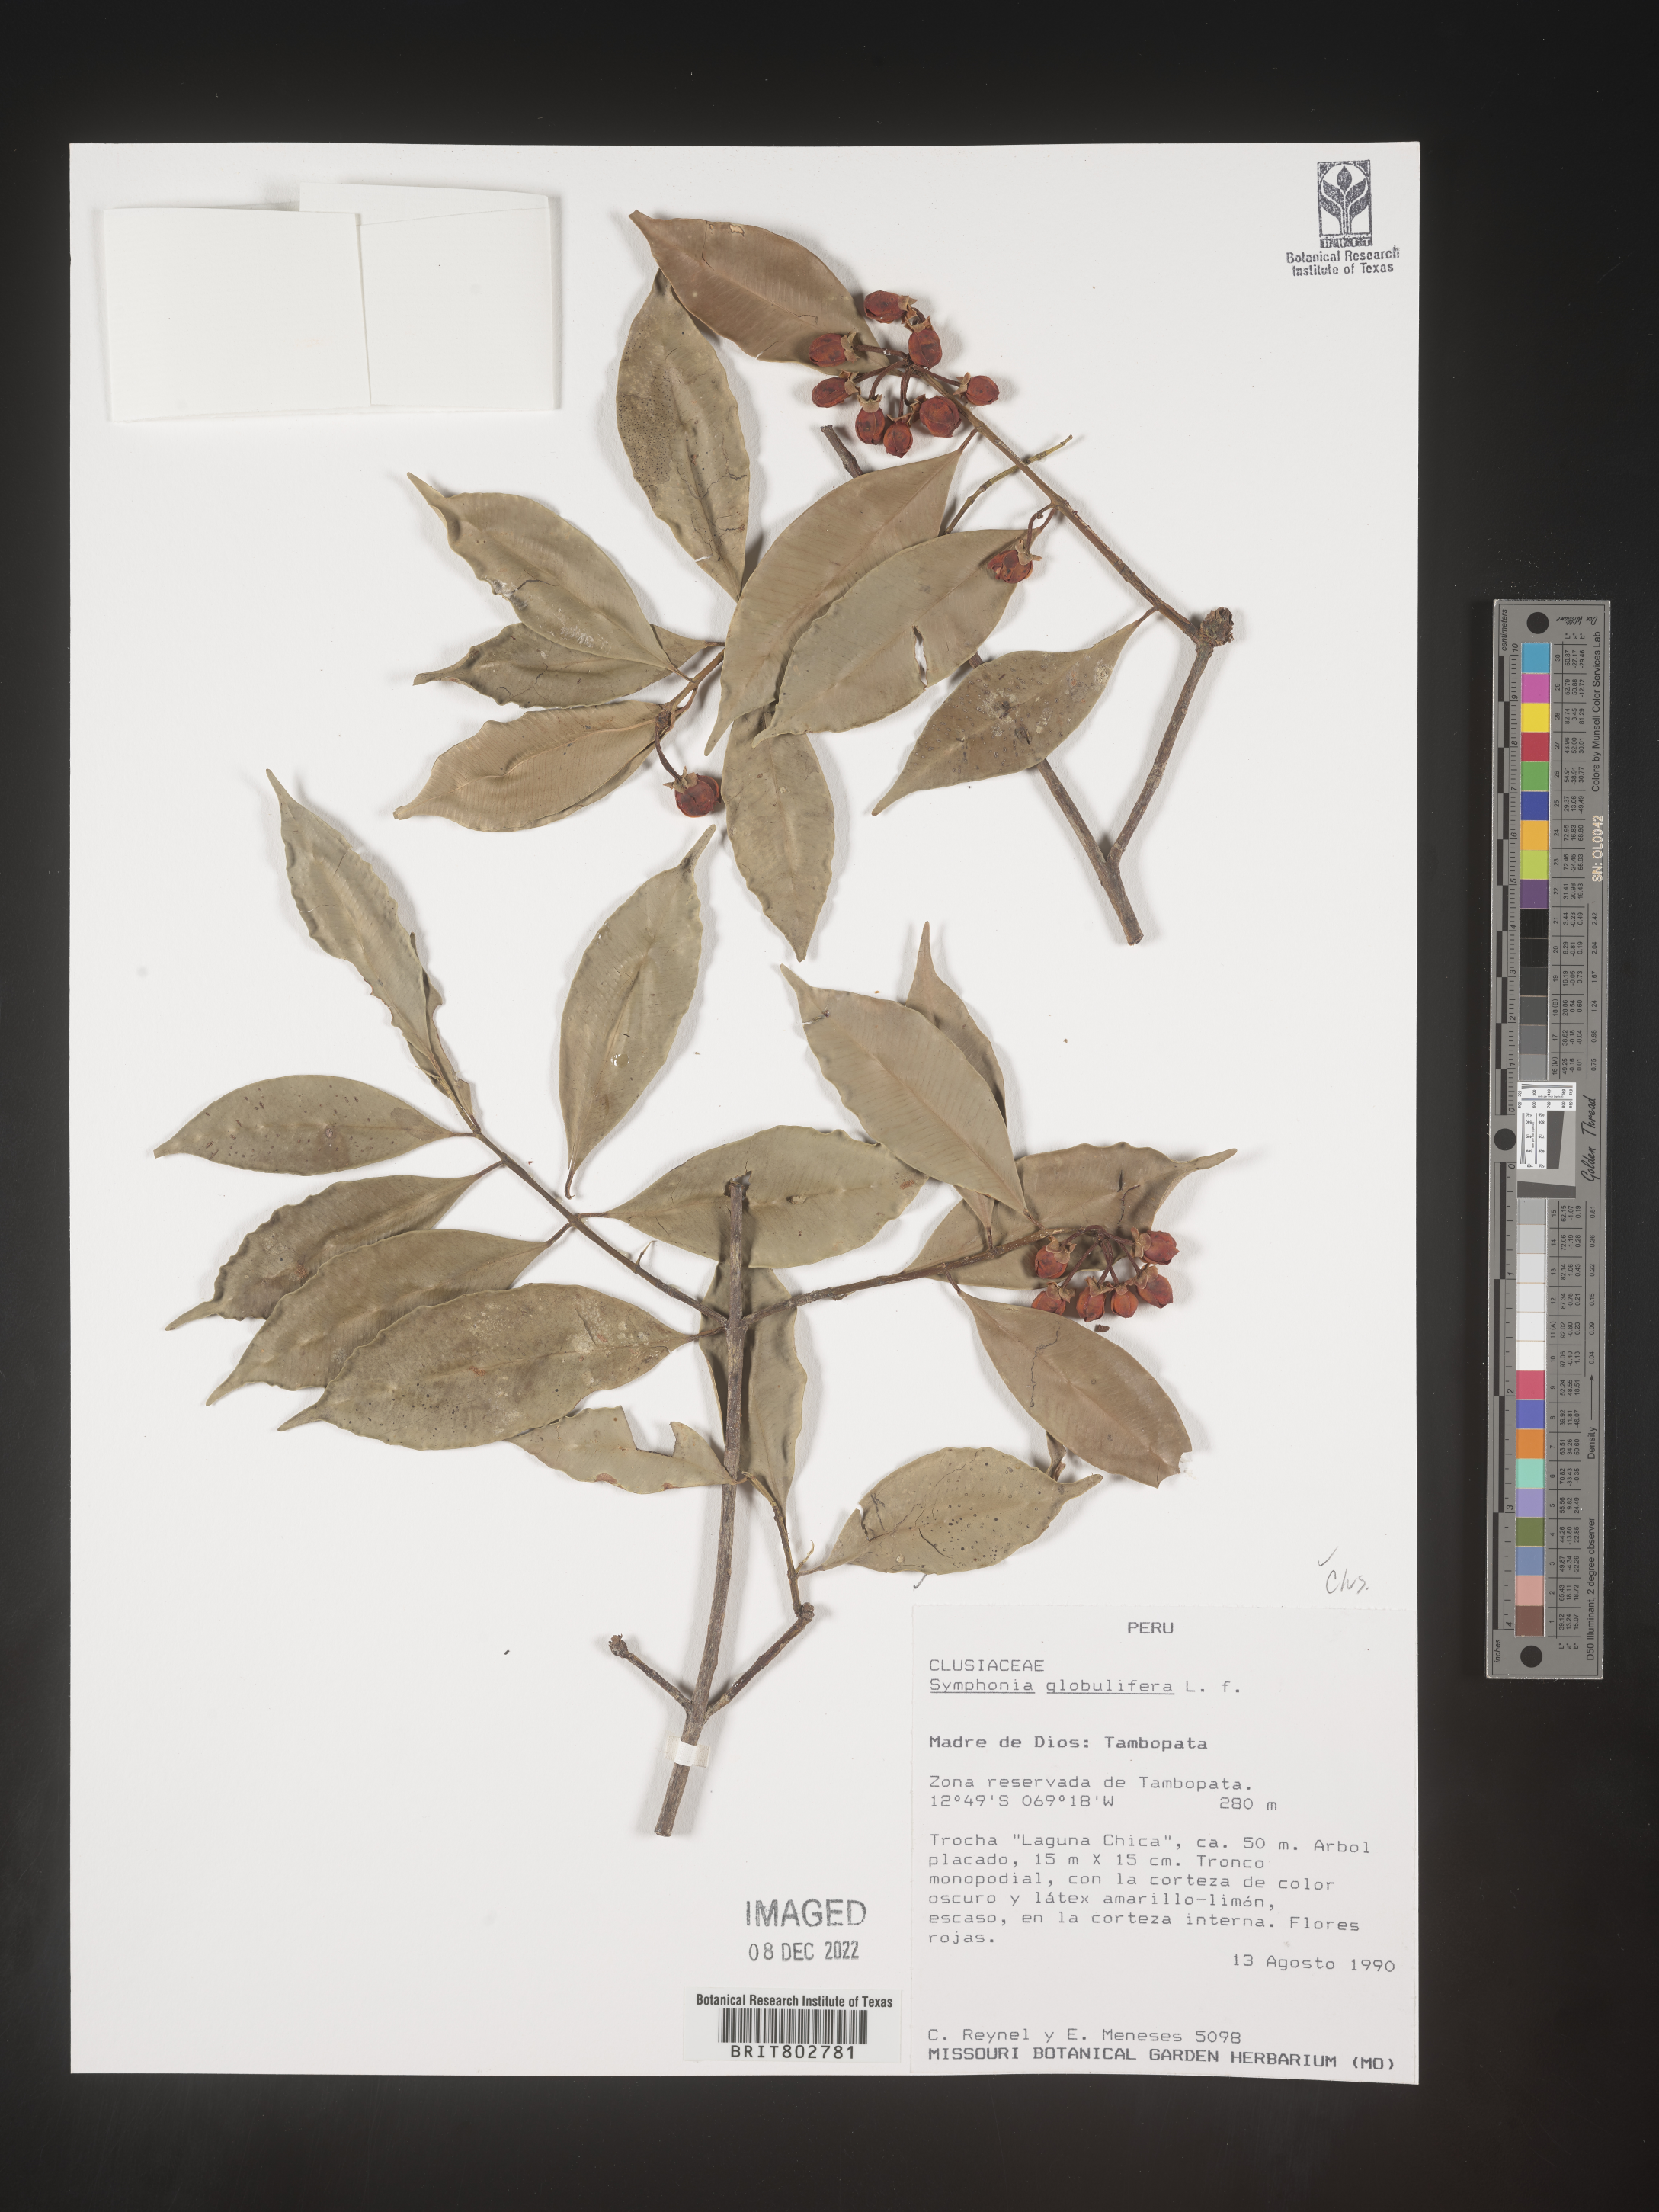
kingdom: Plantae
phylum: Tracheophyta
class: Magnoliopsida
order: Malpighiales
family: Clusiaceae
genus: Clusia
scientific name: Clusia
